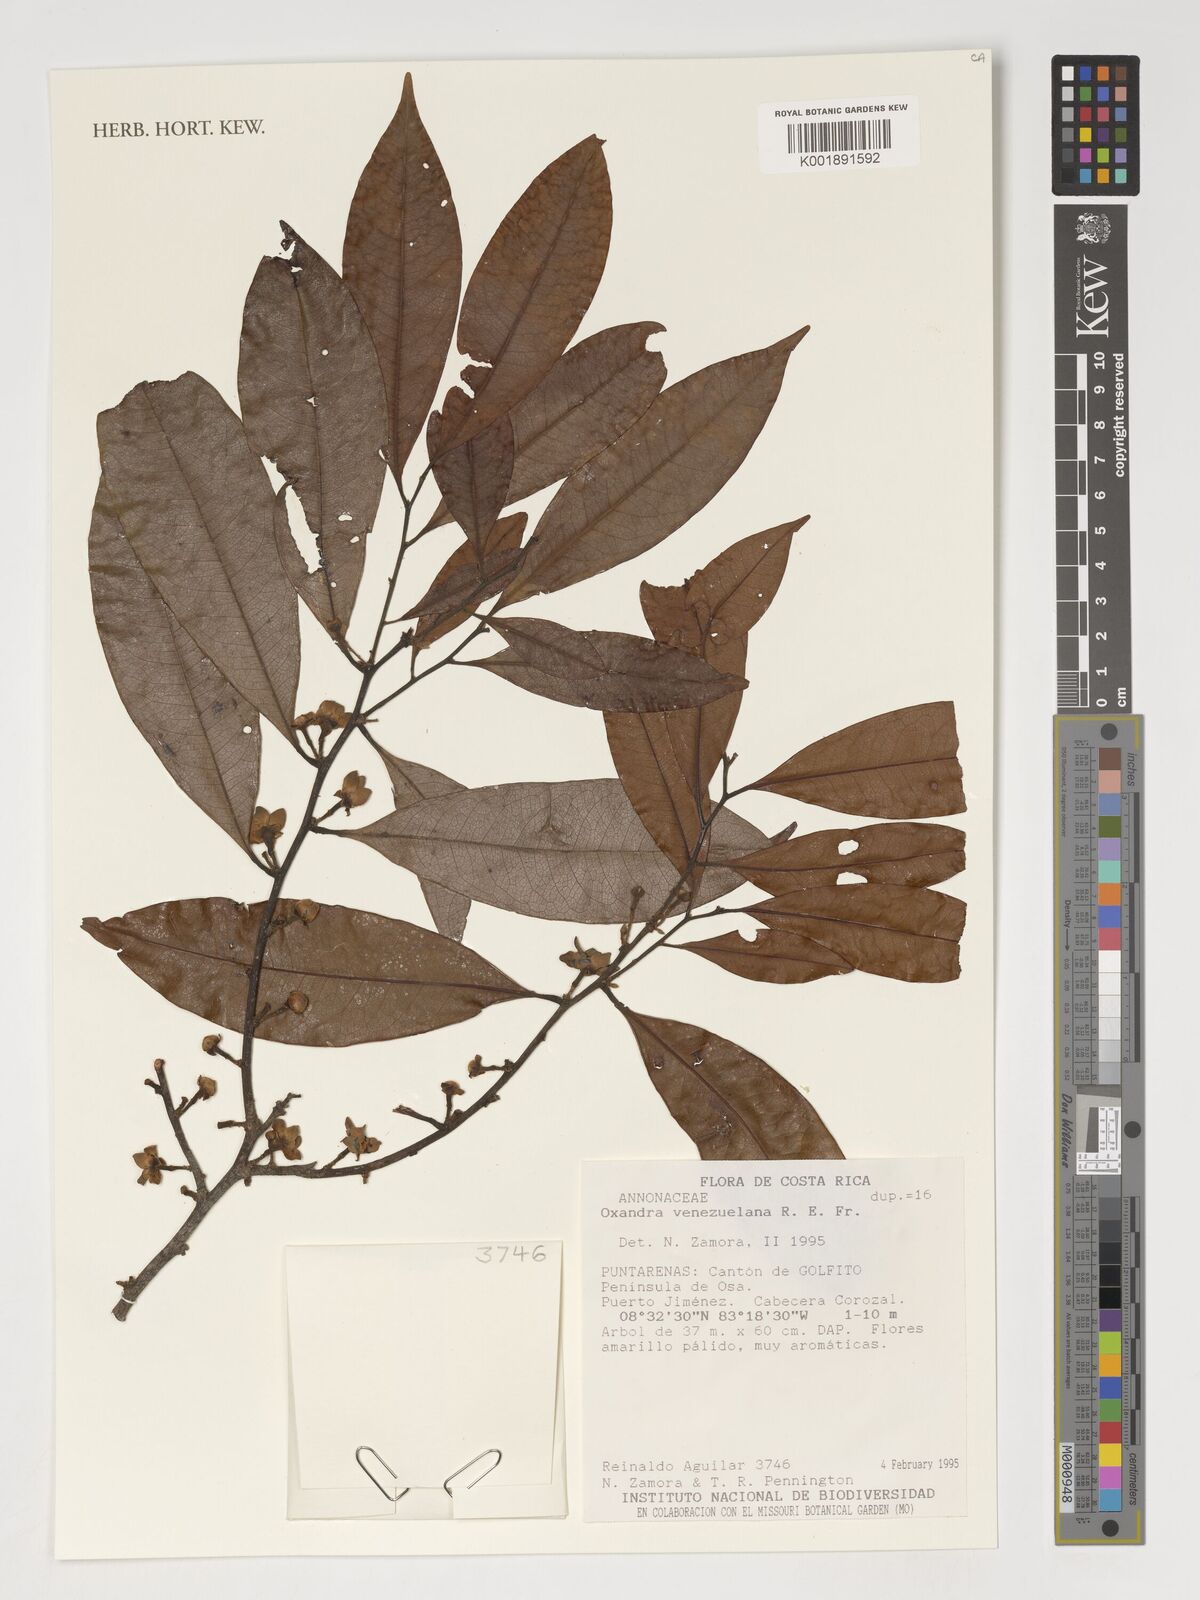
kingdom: Plantae
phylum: Tracheophyta
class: Magnoliopsida
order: Magnoliales
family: Annonaceae
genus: Oxandra
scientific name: Oxandra venezuelana
